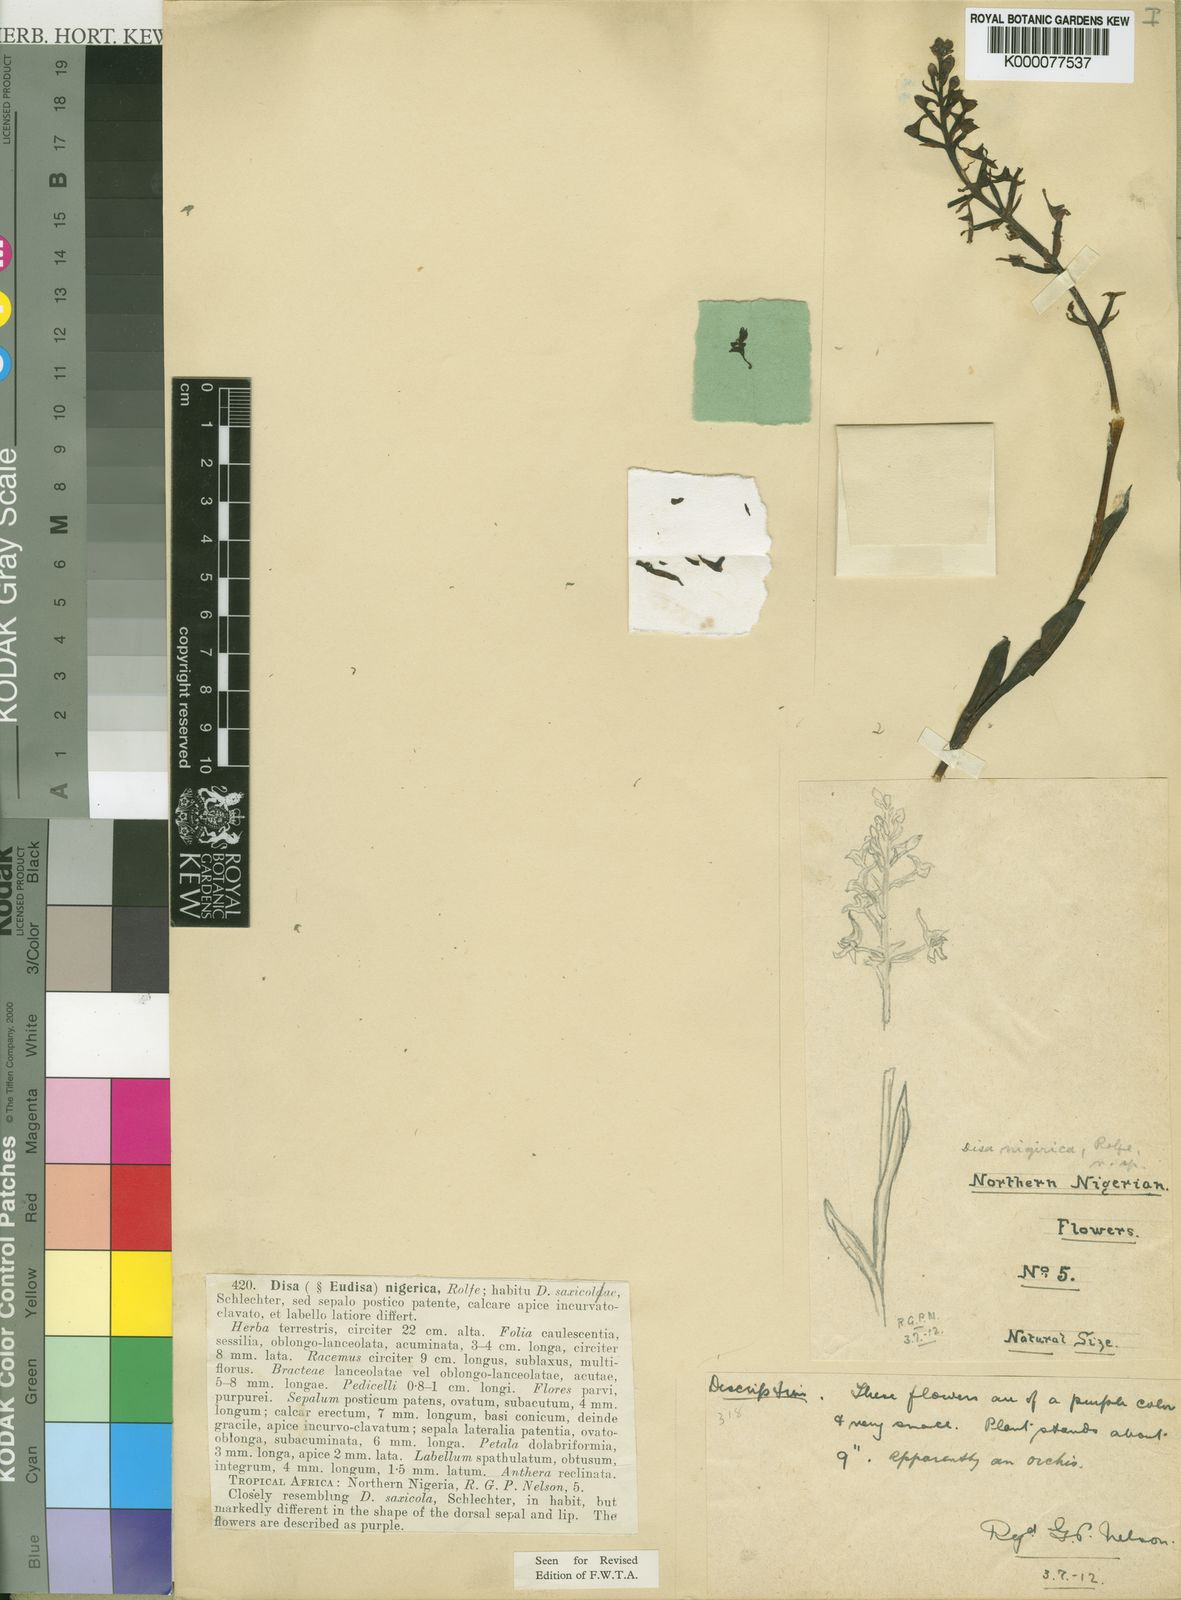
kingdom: Plantae
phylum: Tracheophyta
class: Liliopsida
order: Asparagales
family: Orchidaceae
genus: Disa
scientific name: Disa nigerica
